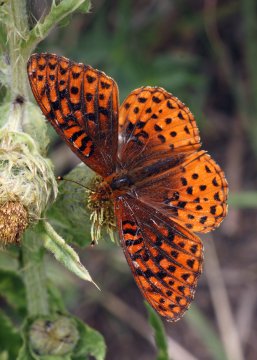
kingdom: Animalia
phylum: Arthropoda
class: Insecta
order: Lepidoptera
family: Nymphalidae
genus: Speyeria
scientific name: Speyeria atlantis
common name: Northwestern Fritillary
